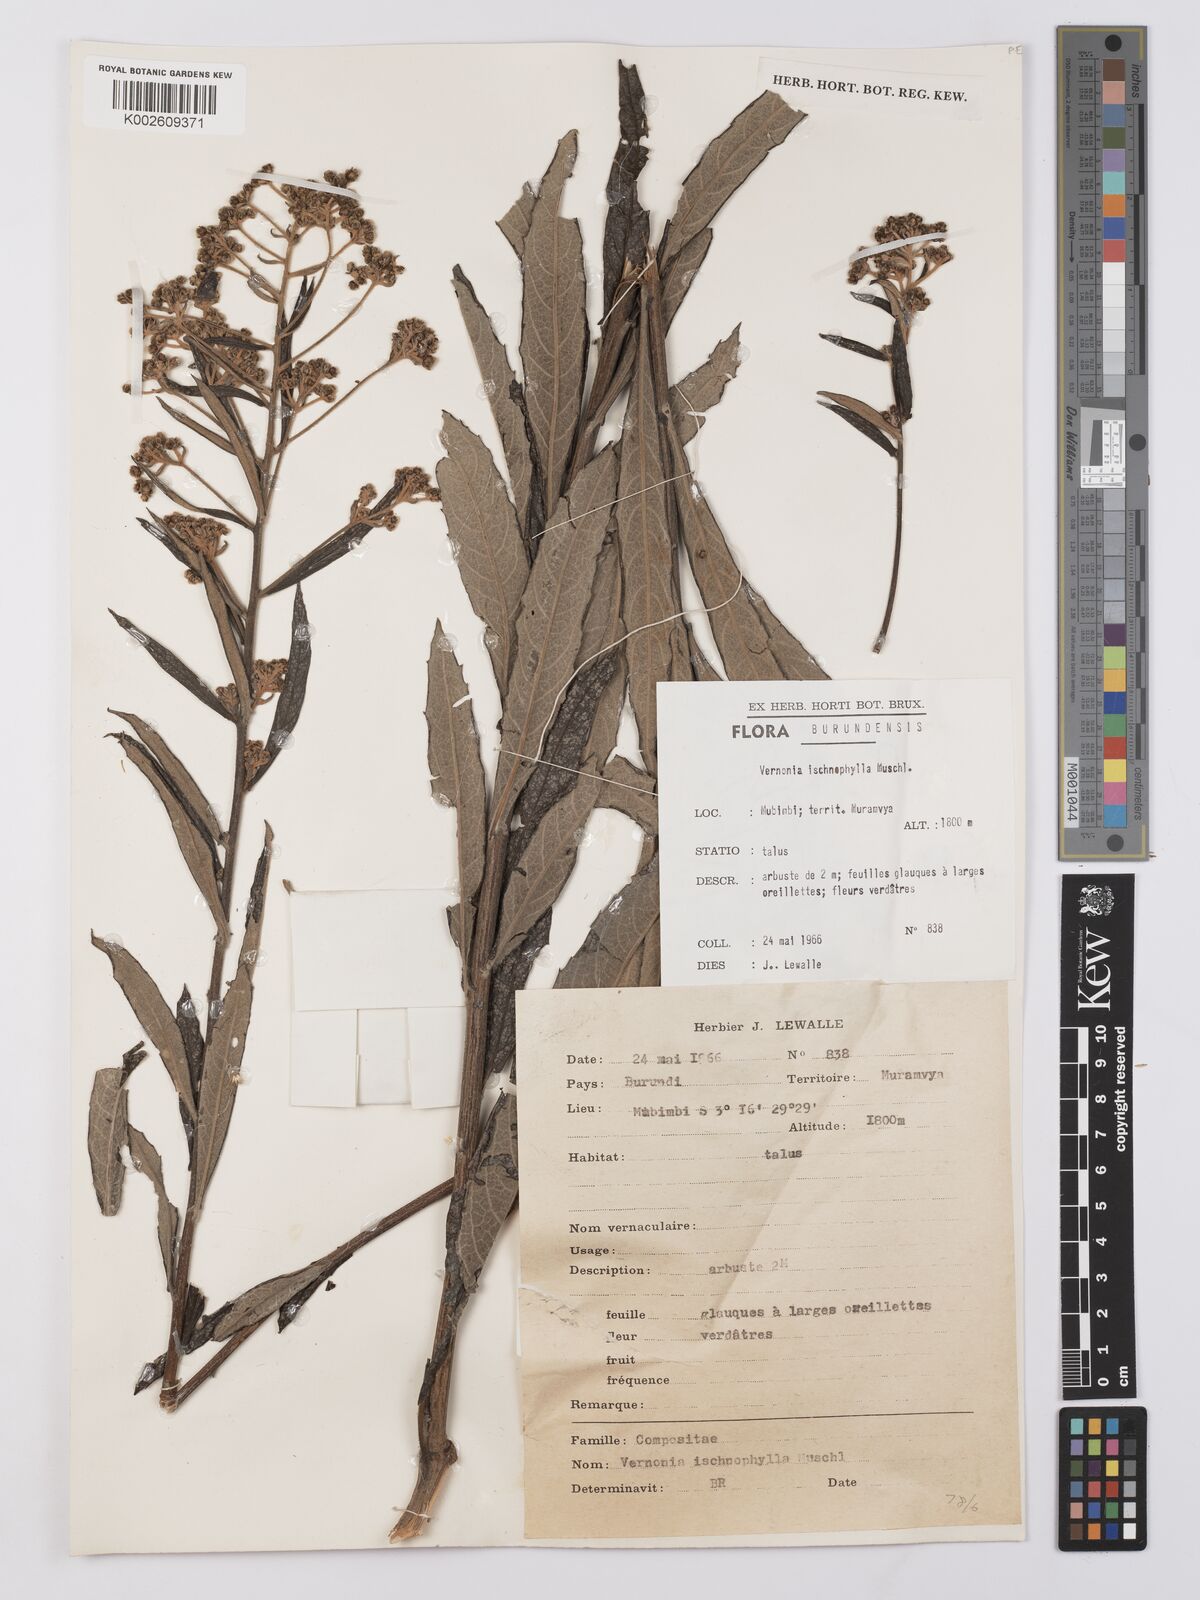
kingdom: Plantae
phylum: Tracheophyta
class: Magnoliopsida
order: Asterales
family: Asteraceae
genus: Vernonia
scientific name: Vernonia ischnophylla
